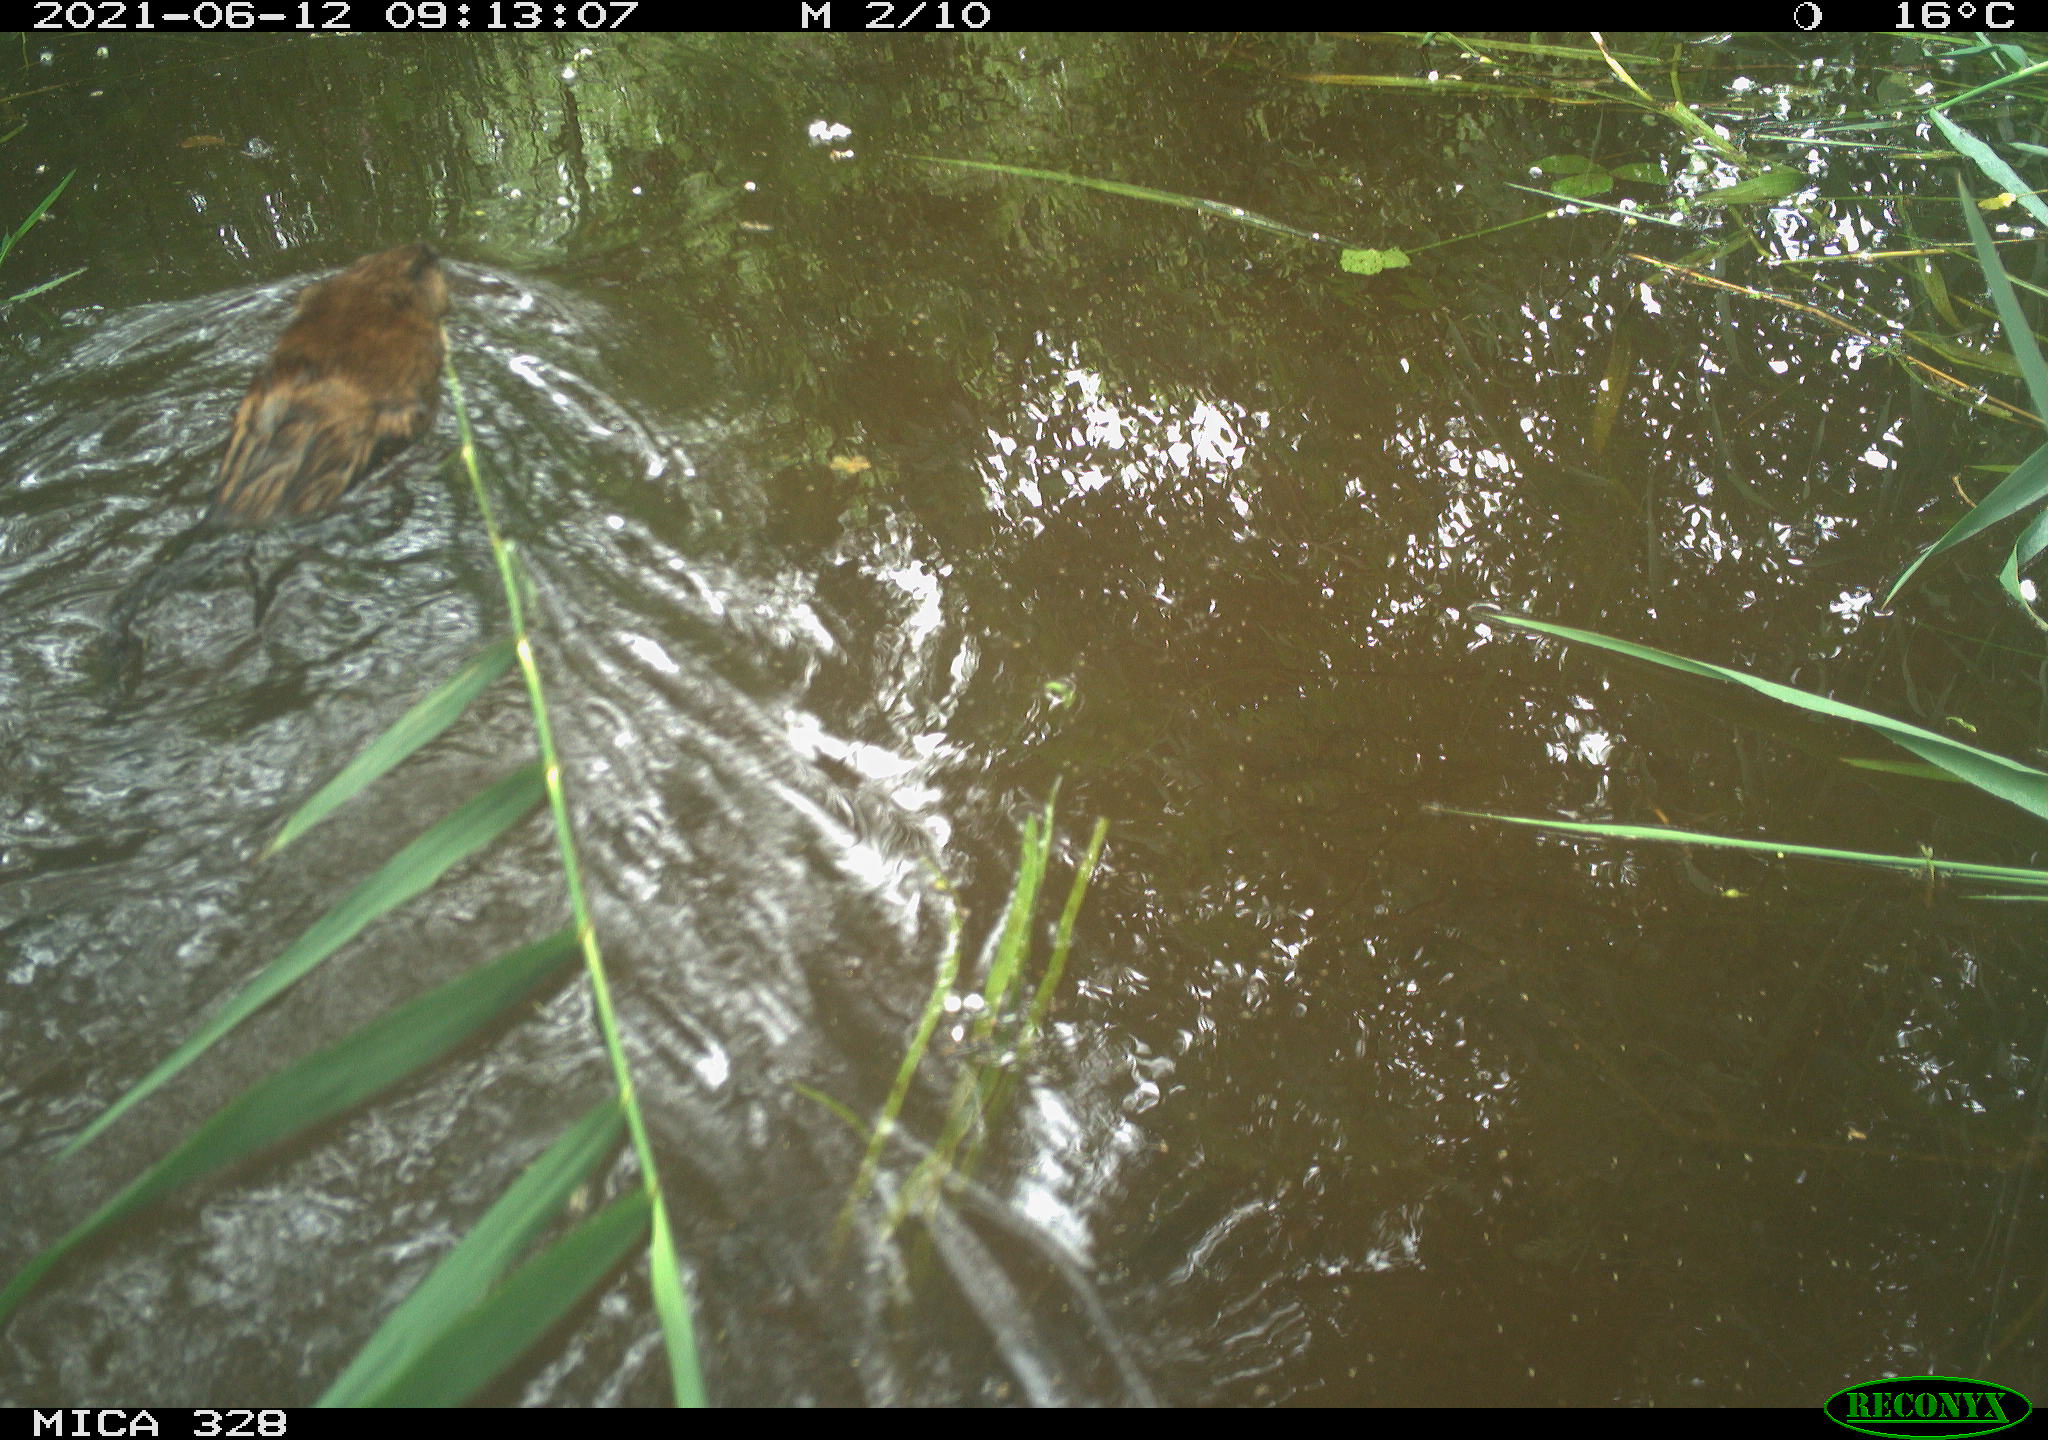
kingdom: Animalia
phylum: Chordata
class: Mammalia
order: Rodentia
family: Cricetidae
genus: Ondatra
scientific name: Ondatra zibethicus
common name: Muskrat
